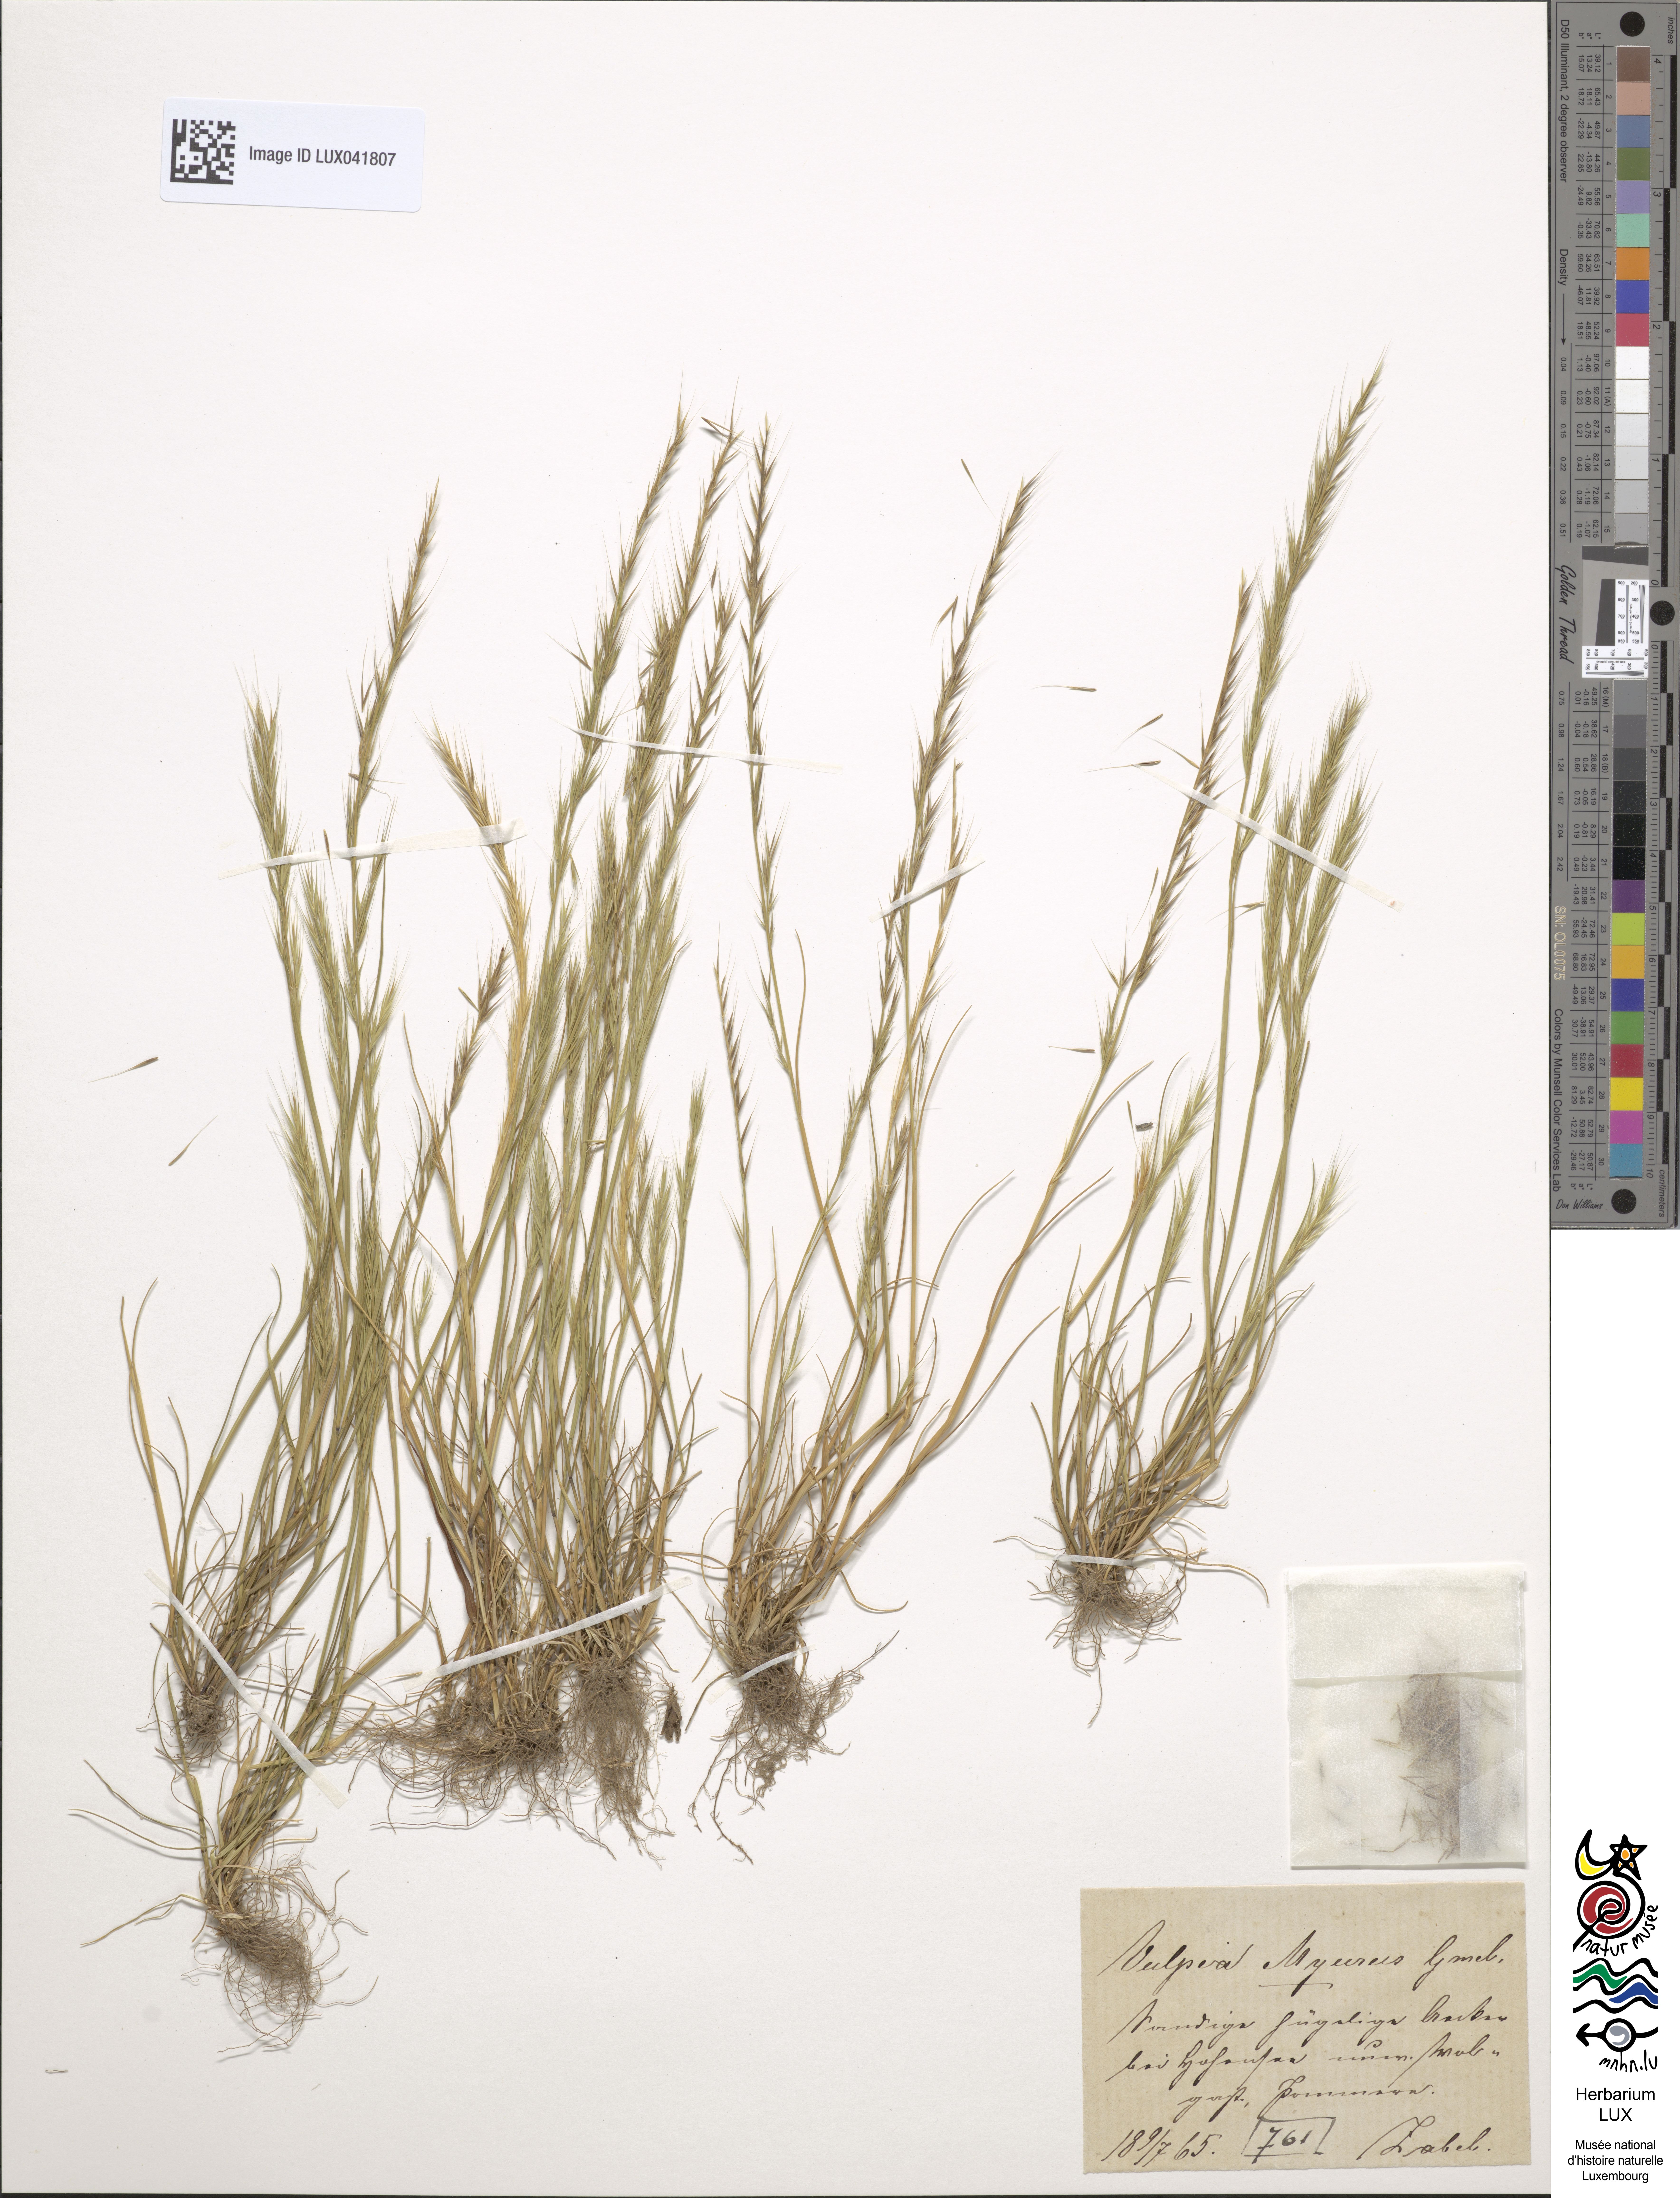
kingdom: Plantae
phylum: Tracheophyta
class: Liliopsida
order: Poales
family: Poaceae
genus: Festuca
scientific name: Festuca myuros
